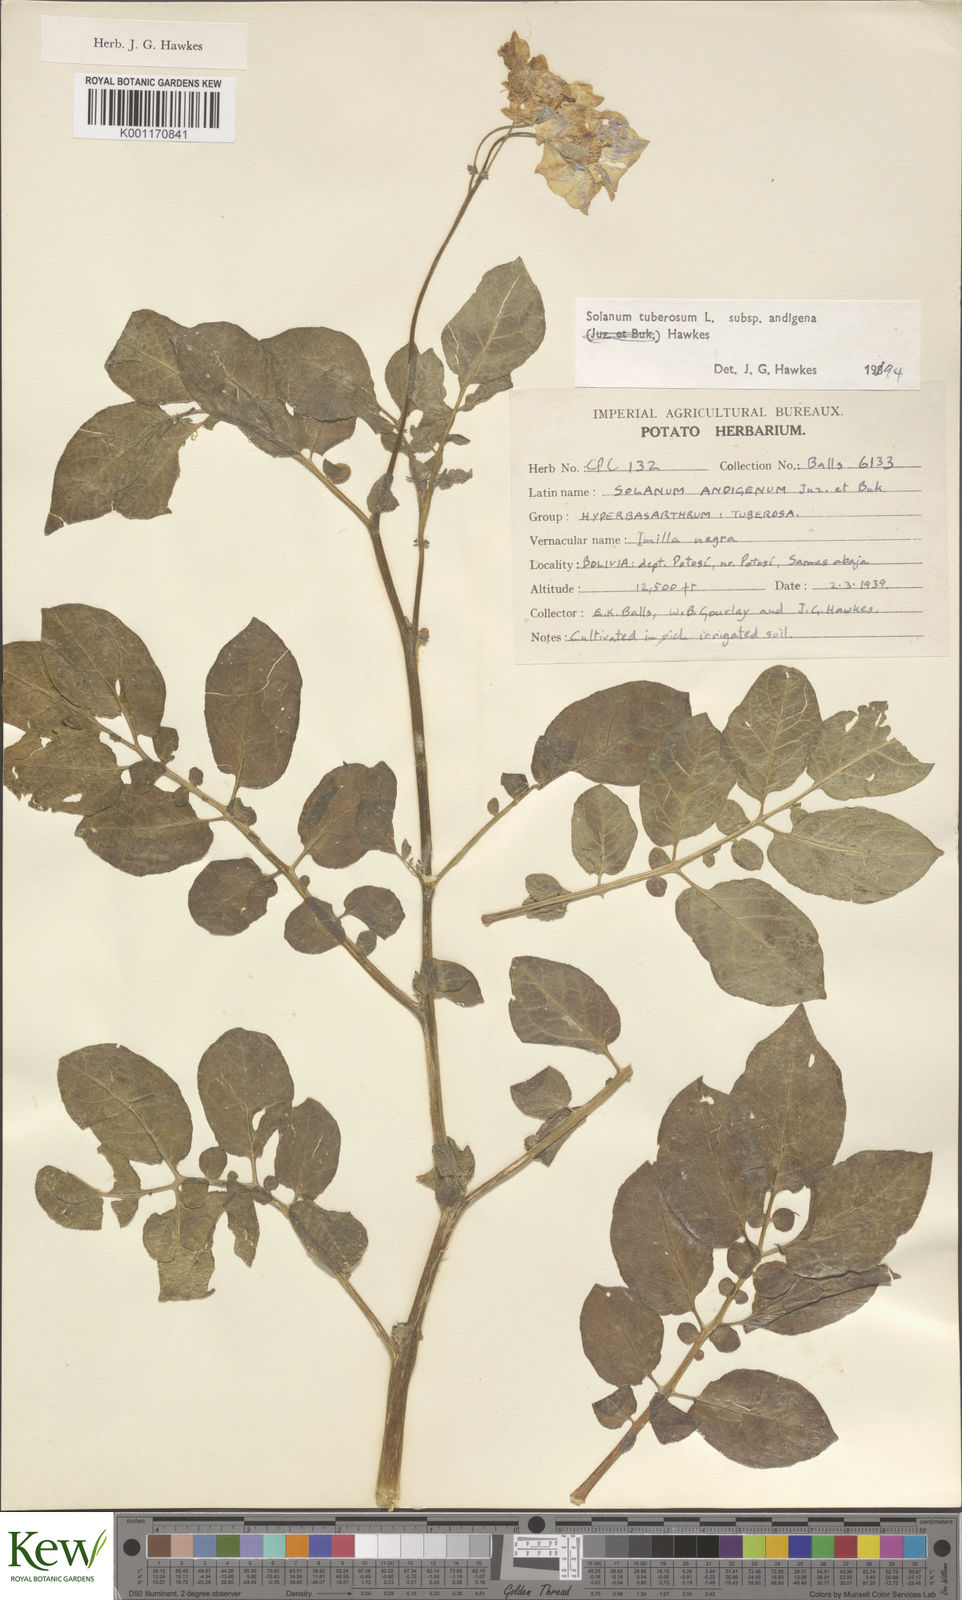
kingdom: Plantae
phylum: Tracheophyta
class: Magnoliopsida
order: Solanales
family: Solanaceae
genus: Solanum
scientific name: Solanum tuberosum
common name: Potato
